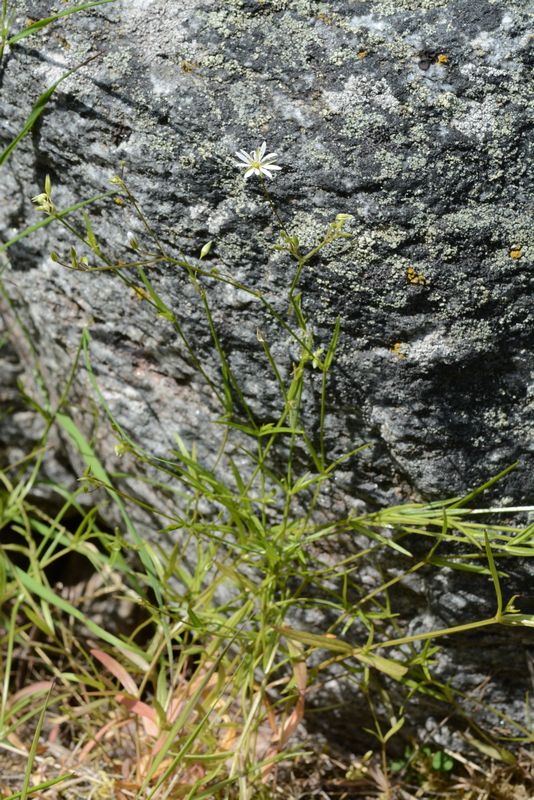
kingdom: Plantae
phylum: Tracheophyta
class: Magnoliopsida
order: Caryophyllales
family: Caryophyllaceae
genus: Stellaria
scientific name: Stellaria graminea
